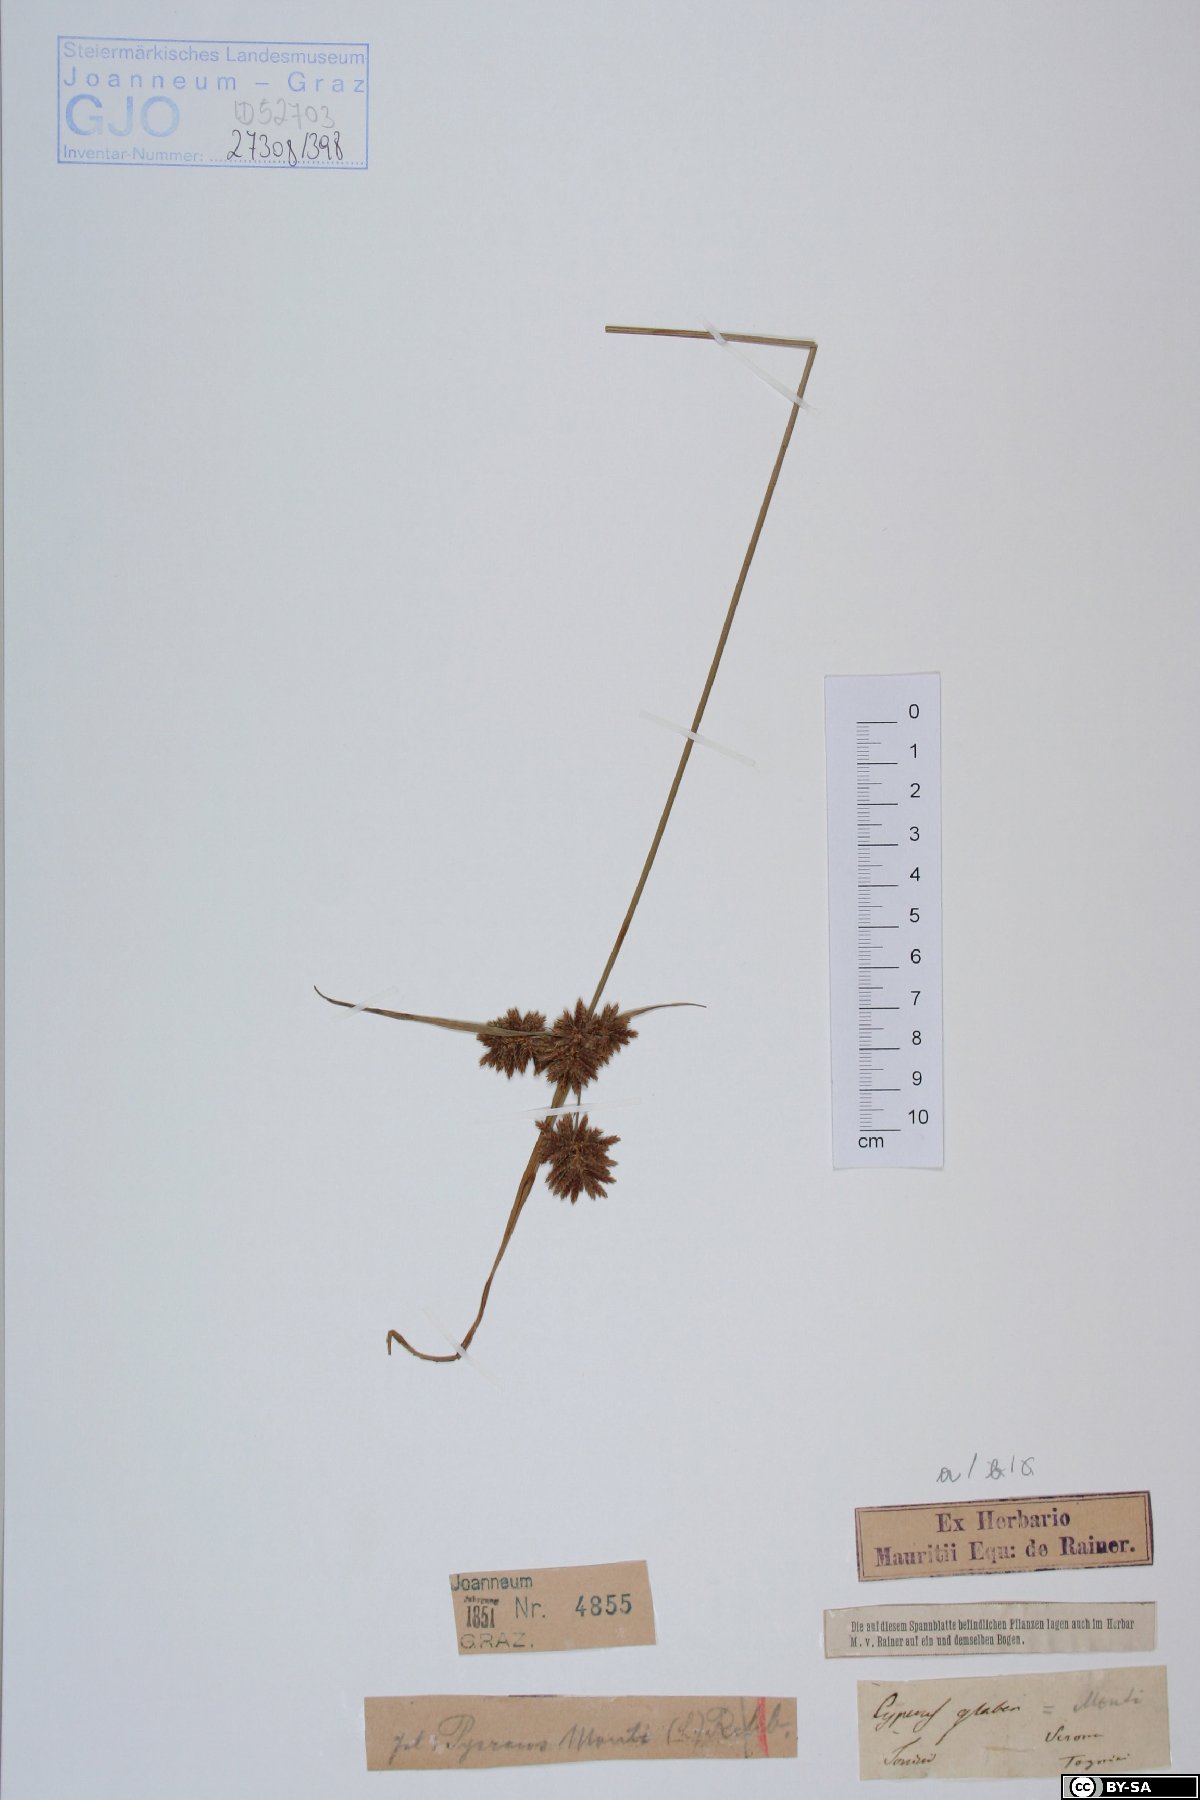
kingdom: Plantae
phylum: Tracheophyta
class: Liliopsida
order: Poales
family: Cyperaceae
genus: Cyperus
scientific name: Cyperus glaber
